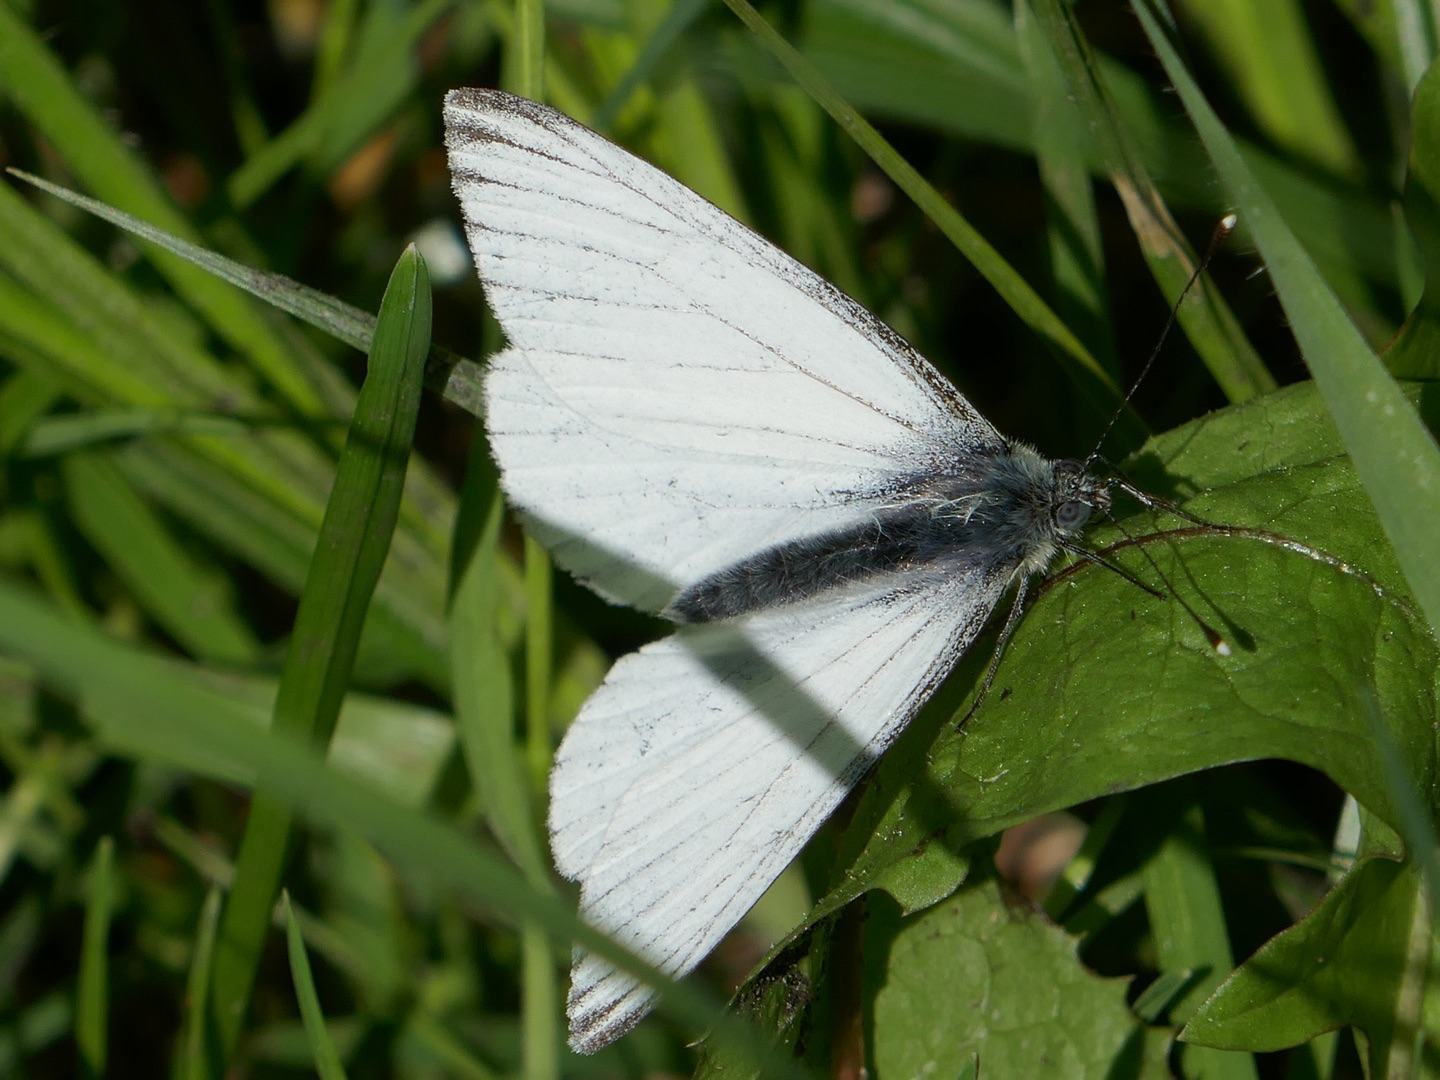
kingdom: Animalia
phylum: Arthropoda
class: Insecta
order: Lepidoptera
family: Pieridae
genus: Pieris
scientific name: Pieris napi
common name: Grønåret kålsommerfugl
